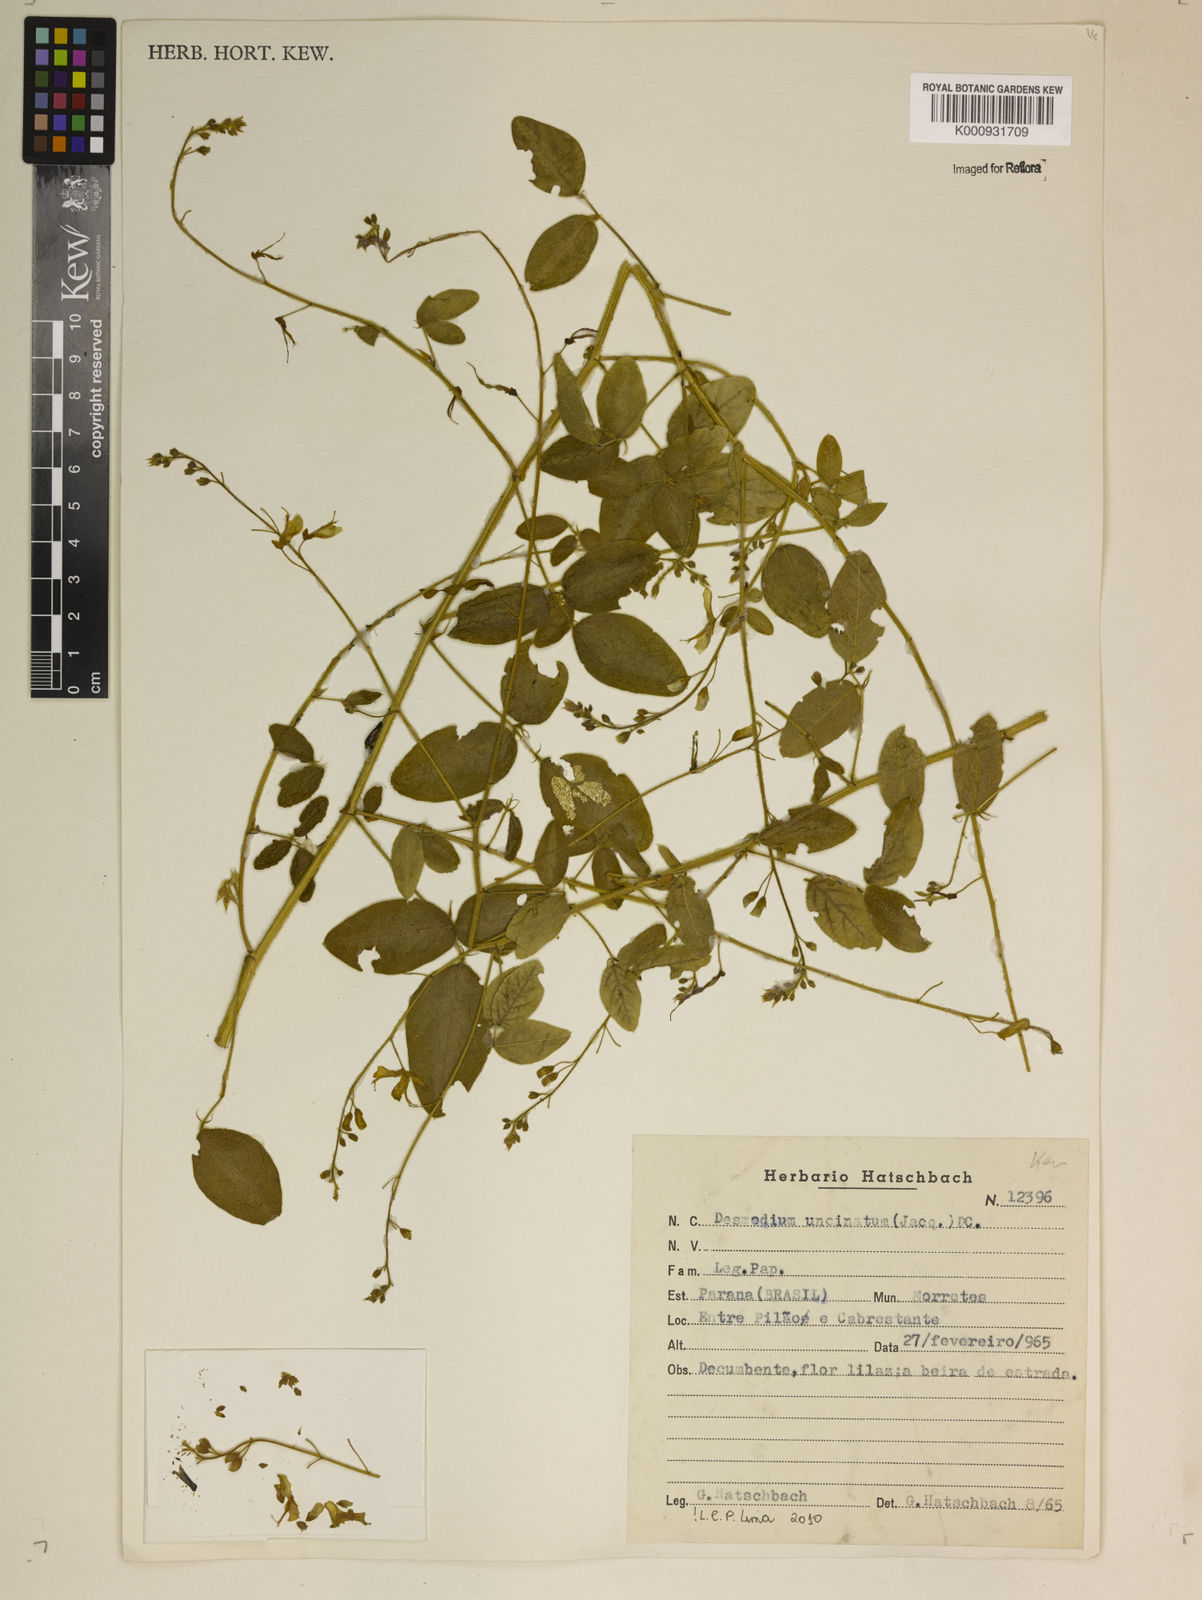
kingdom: Plantae
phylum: Tracheophyta
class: Magnoliopsida
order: Fabales
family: Fabaceae
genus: Desmodium
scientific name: Desmodium uncinatum
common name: Silverleaf desmodium
